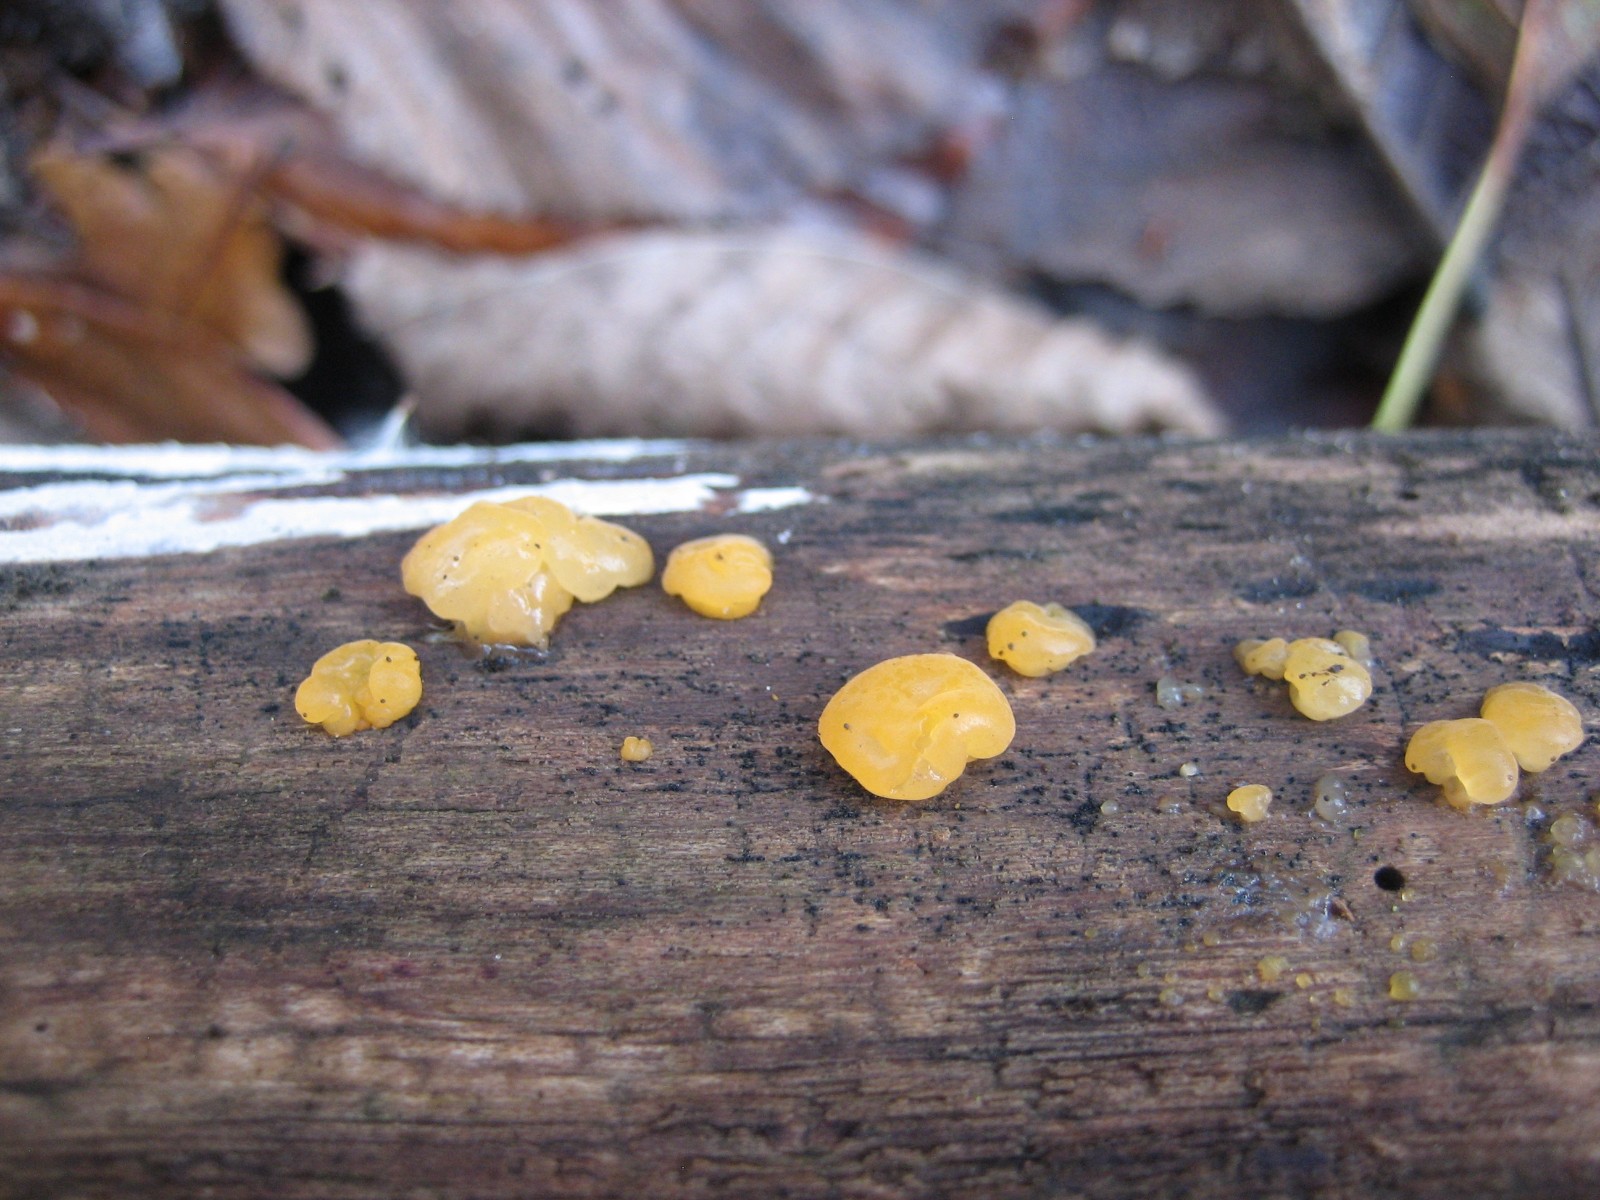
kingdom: Fungi
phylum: Basidiomycota
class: Dacrymycetes
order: Dacrymycetales
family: Dacrymycetaceae
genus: Dacrymyces
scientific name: Dacrymyces stillatus
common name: almindelig tåresvamp
